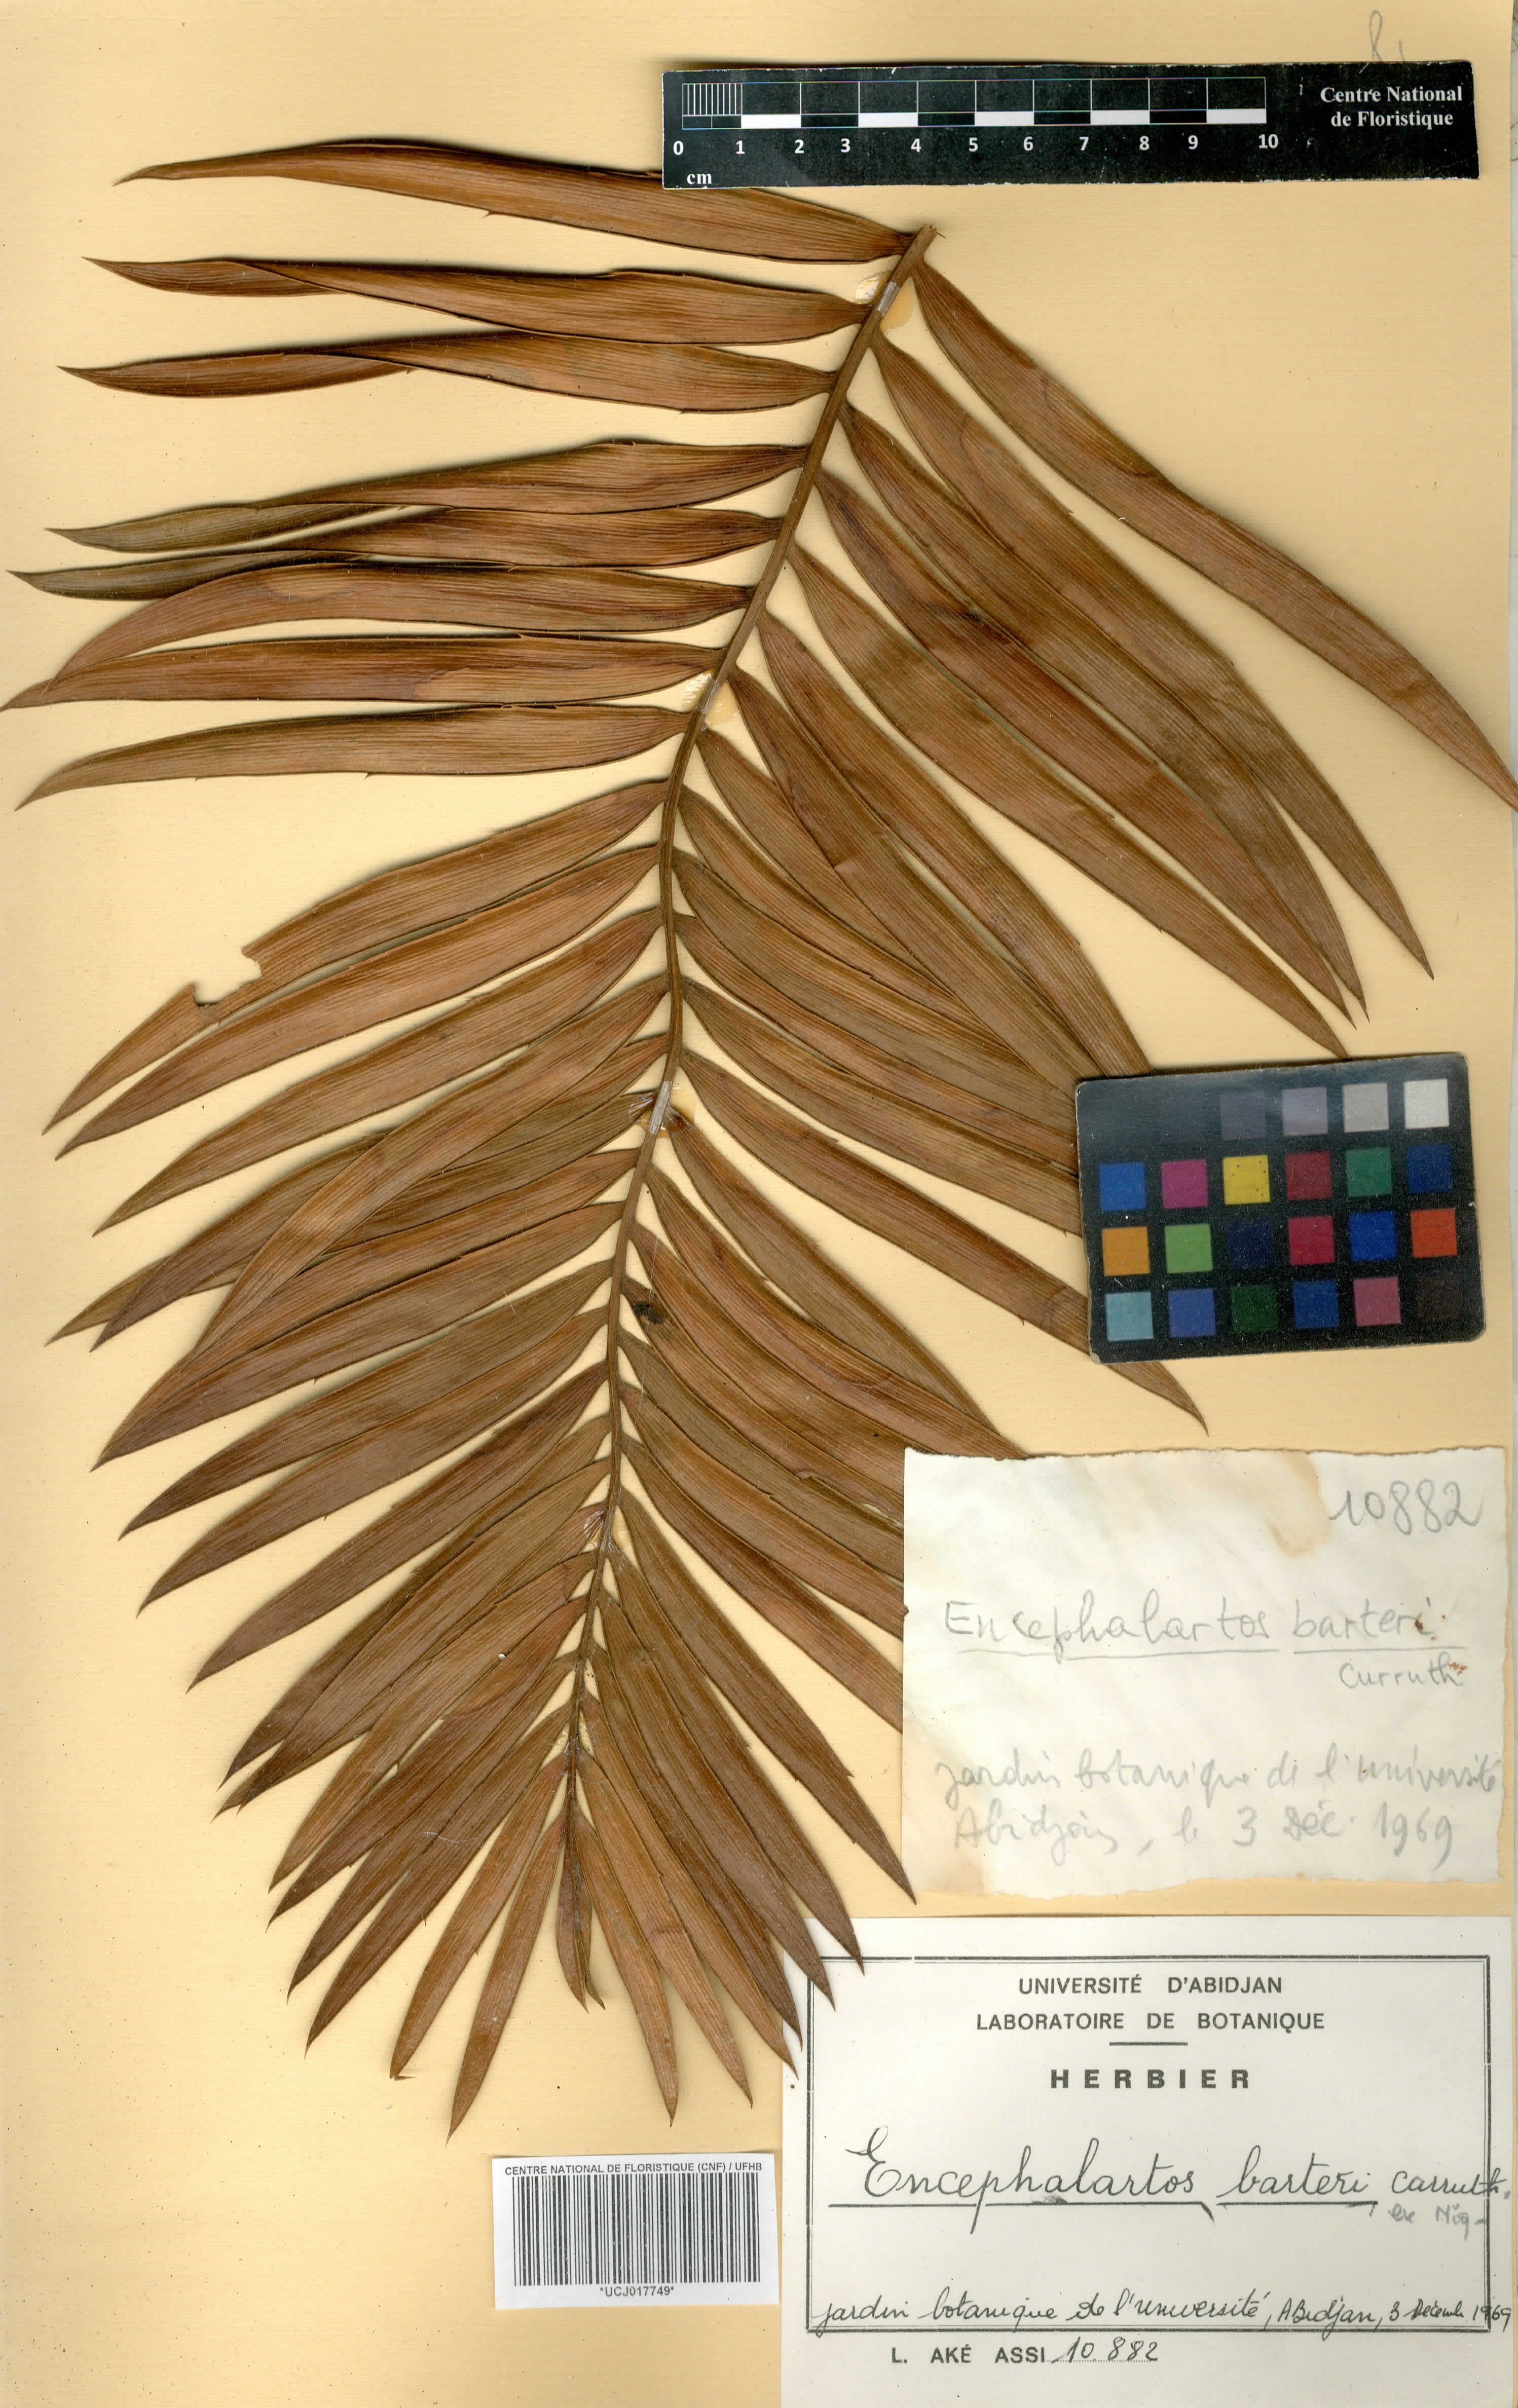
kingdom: Plantae
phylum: Tracheophyta
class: Cycadopsida
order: Cycadales
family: Zamiaceae
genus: Encephalartos
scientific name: Encephalartos barteri
